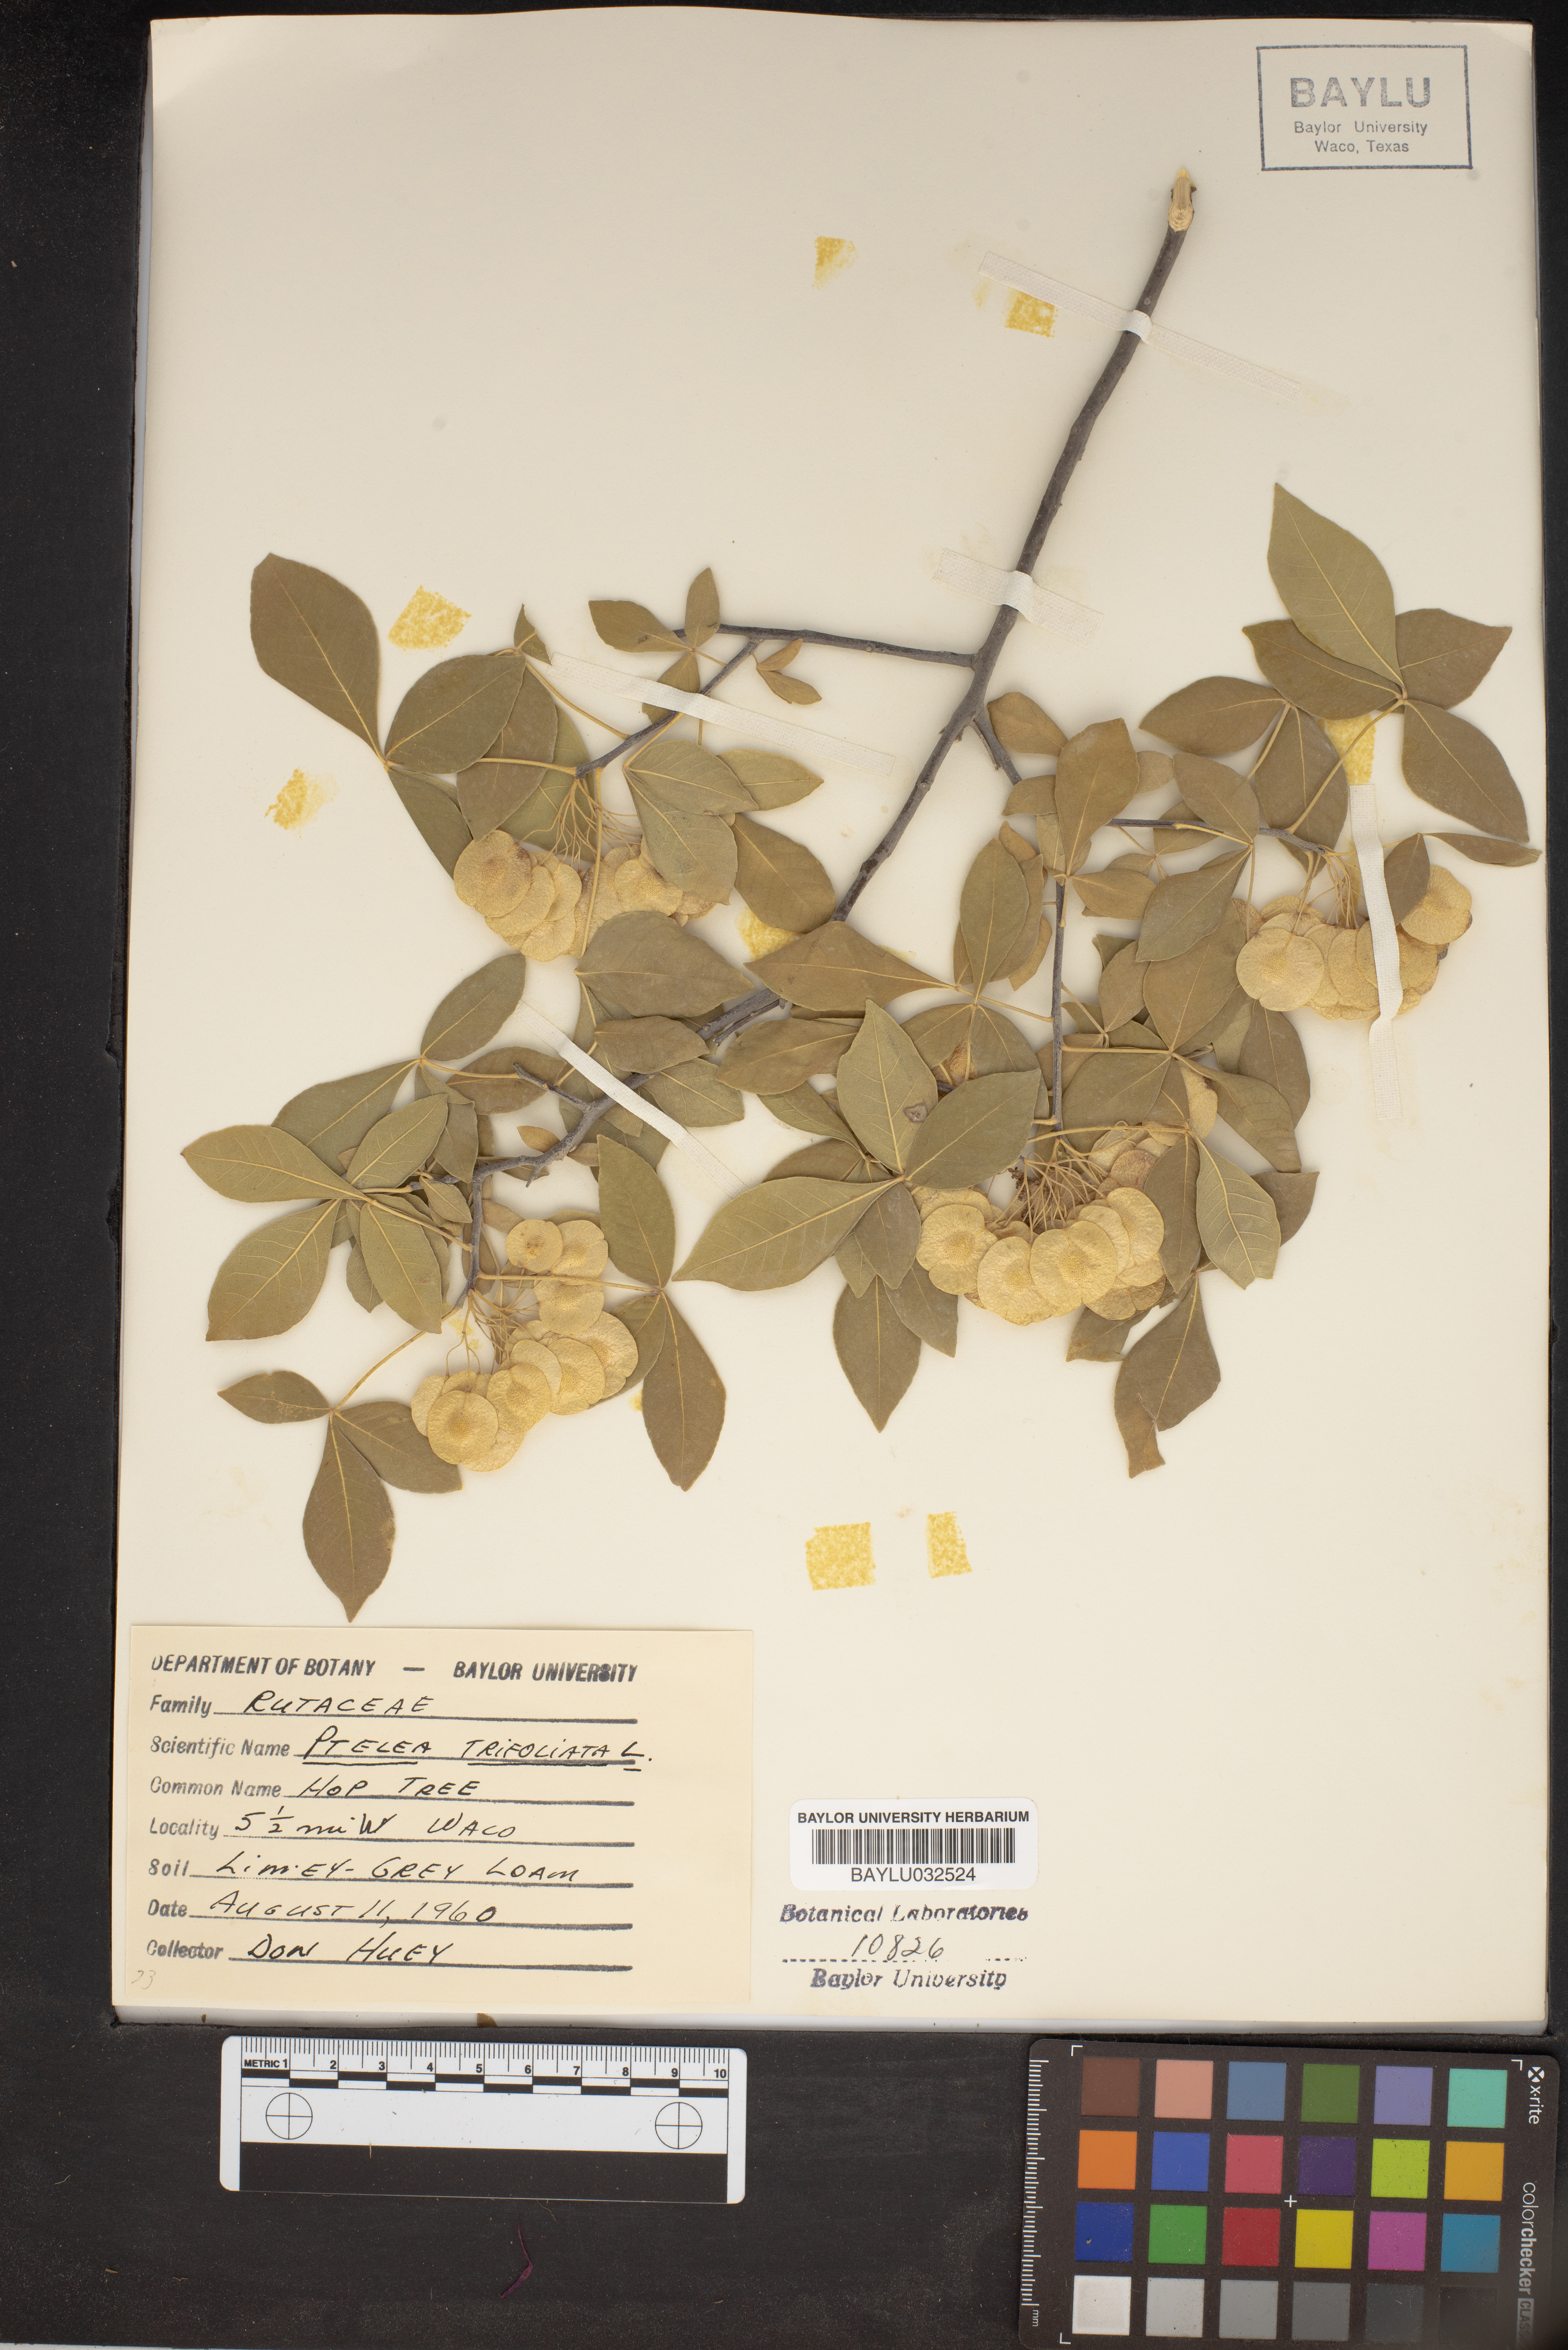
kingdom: Plantae
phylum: Tracheophyta
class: Magnoliopsida
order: Sapindales
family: Rutaceae
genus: Ptelea
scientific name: Ptelea trifoliata
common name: Common hop-tree
